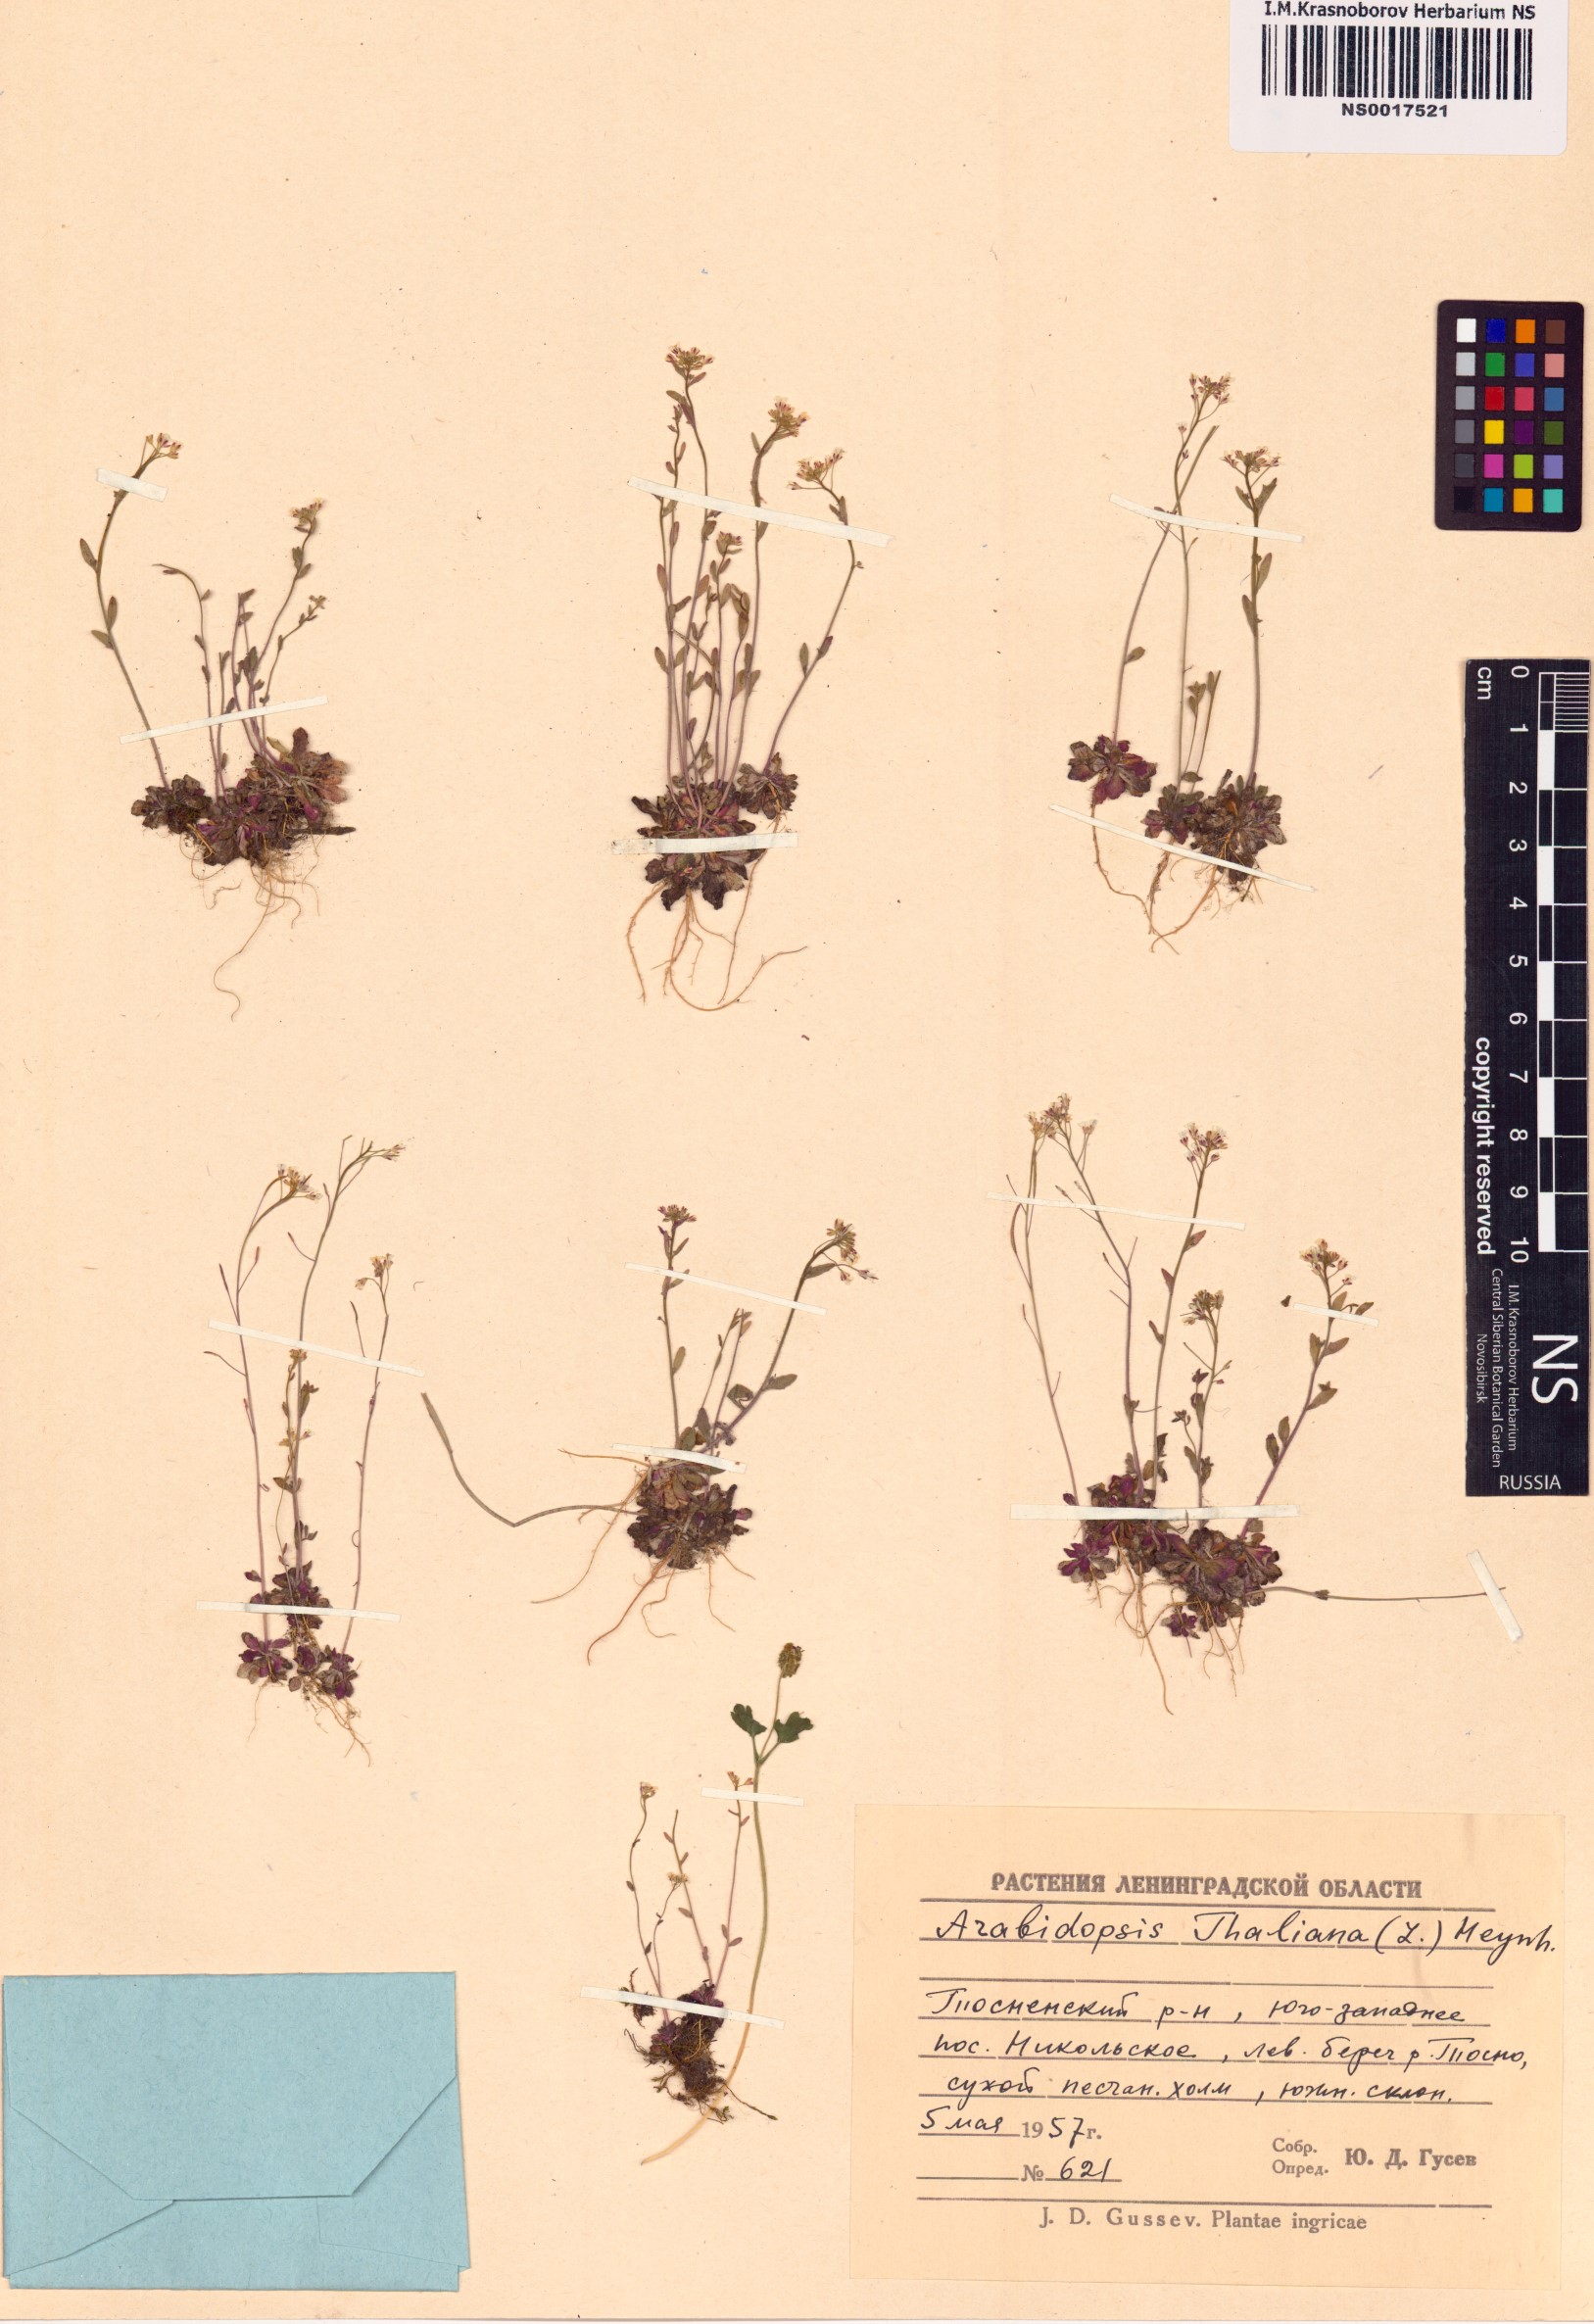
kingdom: Plantae
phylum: Tracheophyta
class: Magnoliopsida
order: Brassicales
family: Brassicaceae
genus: Arabidopsis
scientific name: Arabidopsis thaliana
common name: Thale cress
